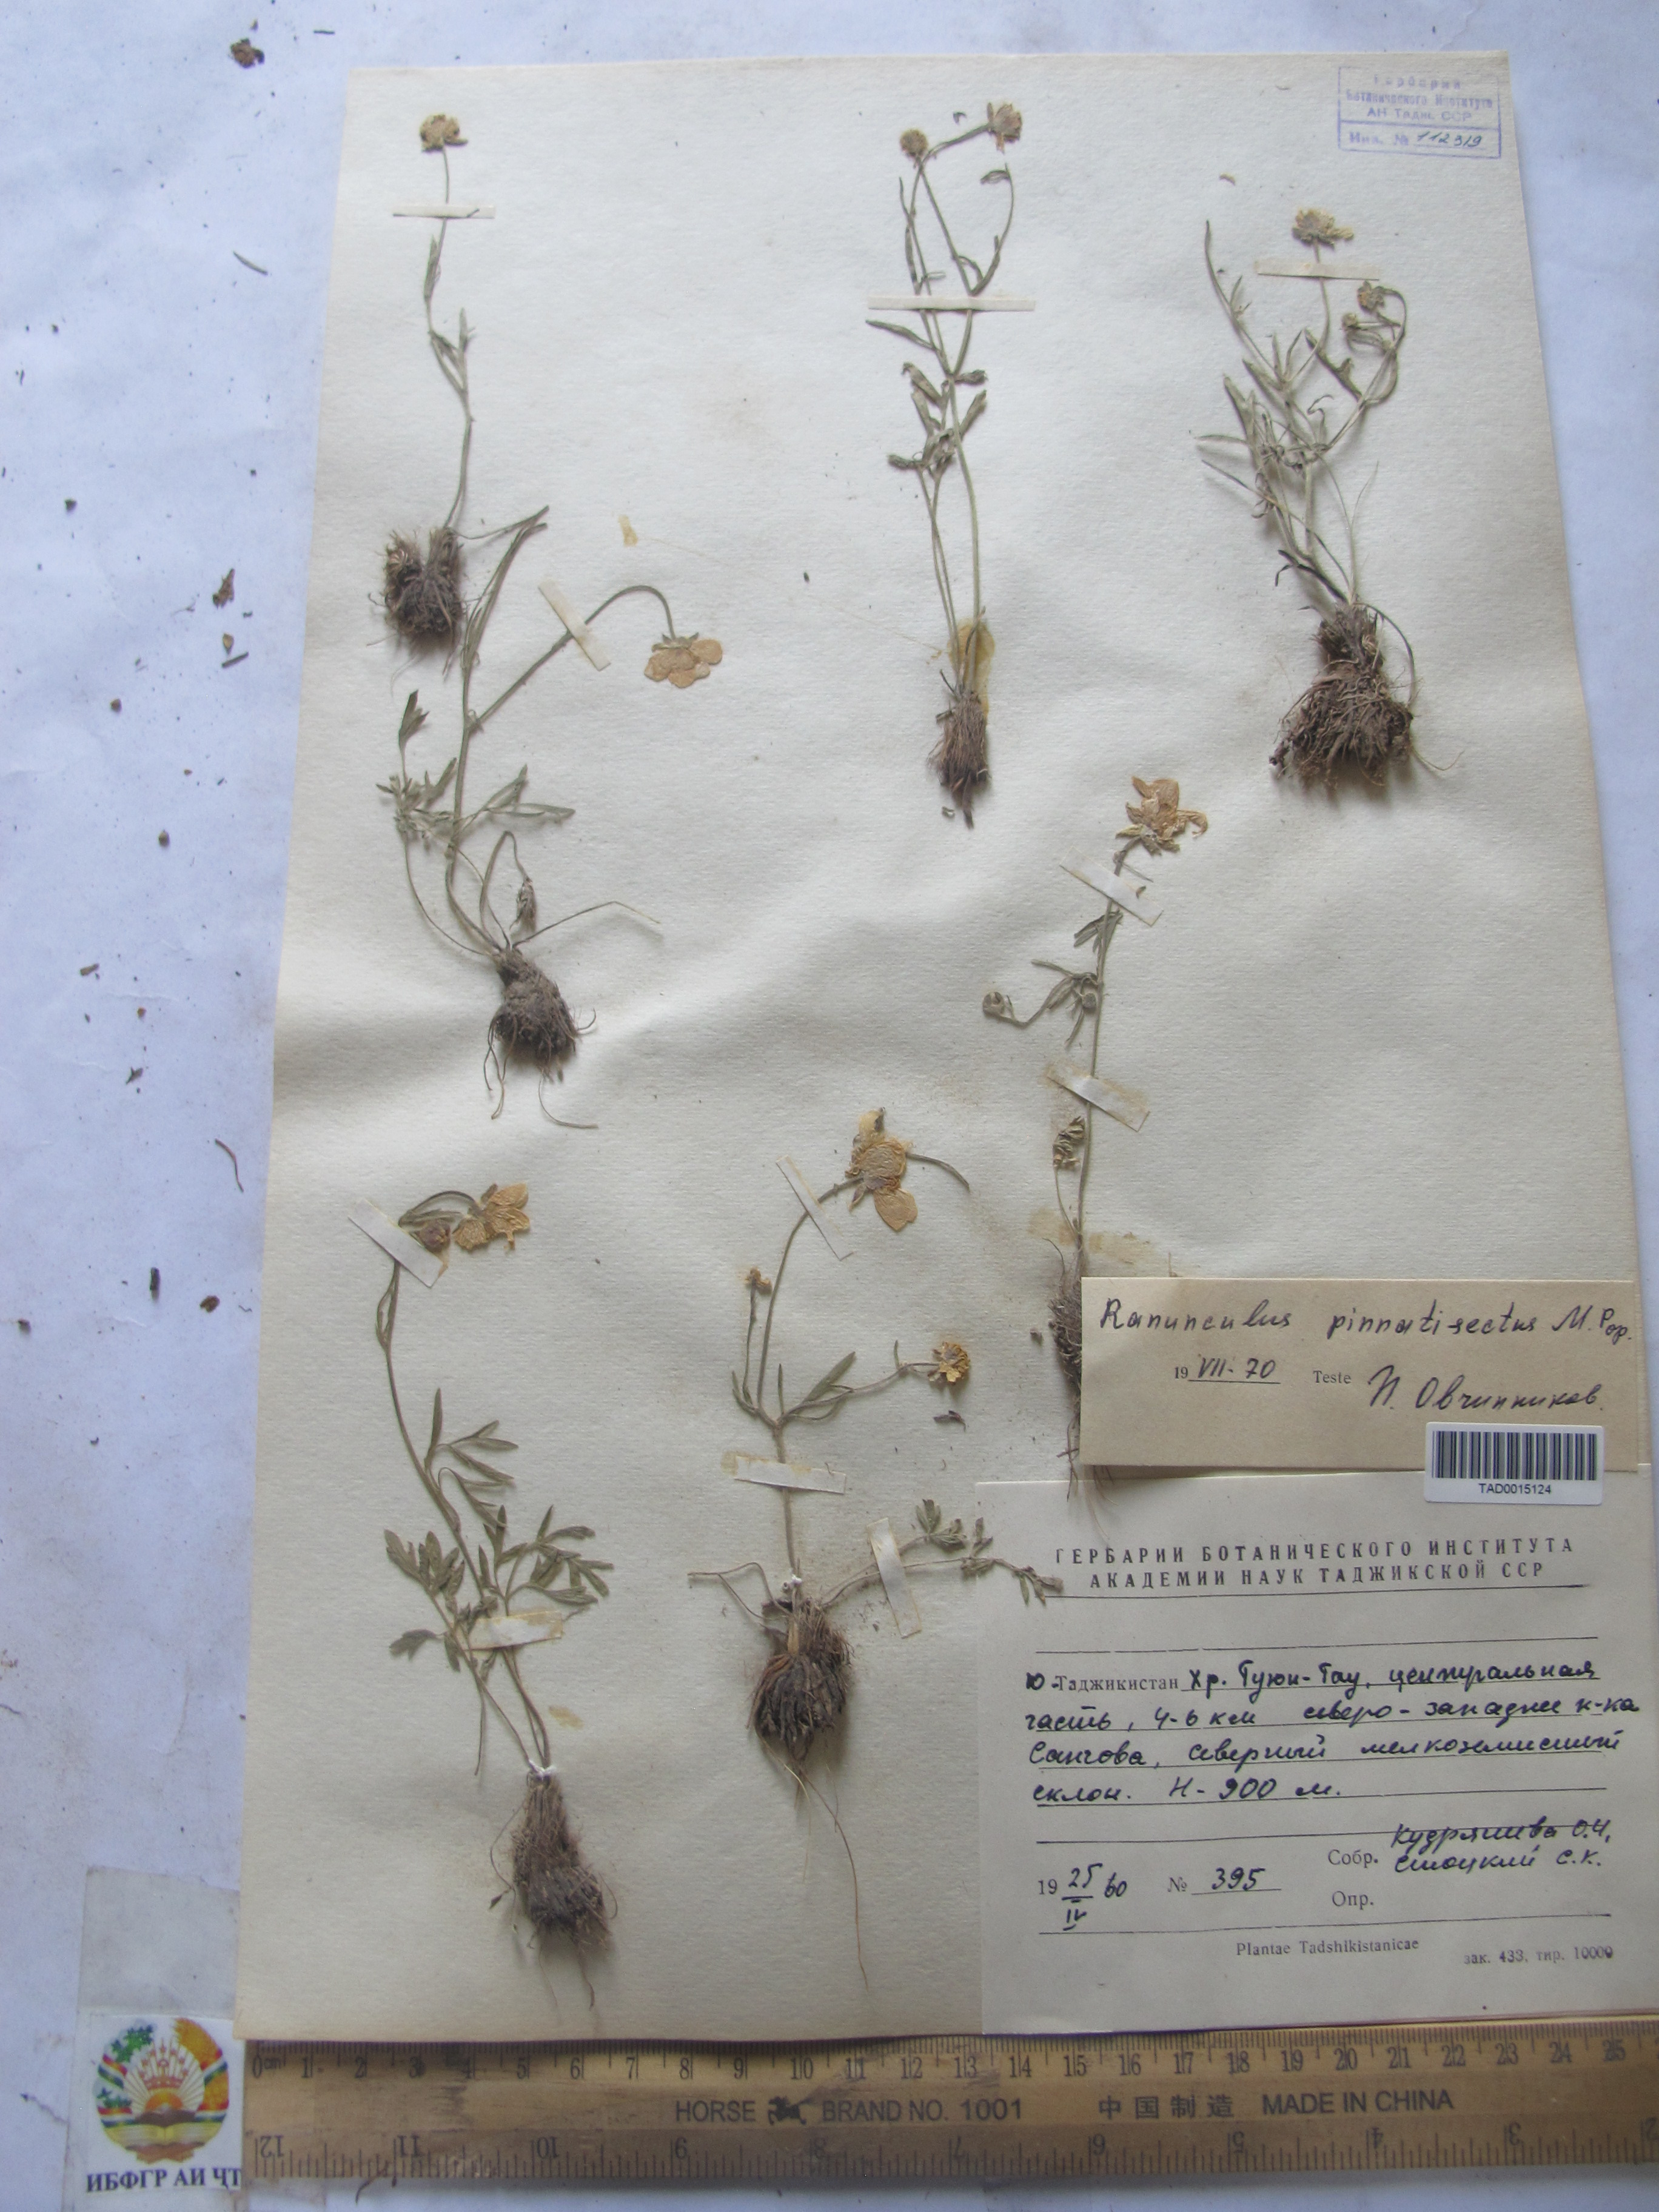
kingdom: Plantae
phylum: Tracheophyta
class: Magnoliopsida
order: Ranunculales
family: Ranunculaceae
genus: Ranunculus
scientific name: Ranunculus pinnatisectus
